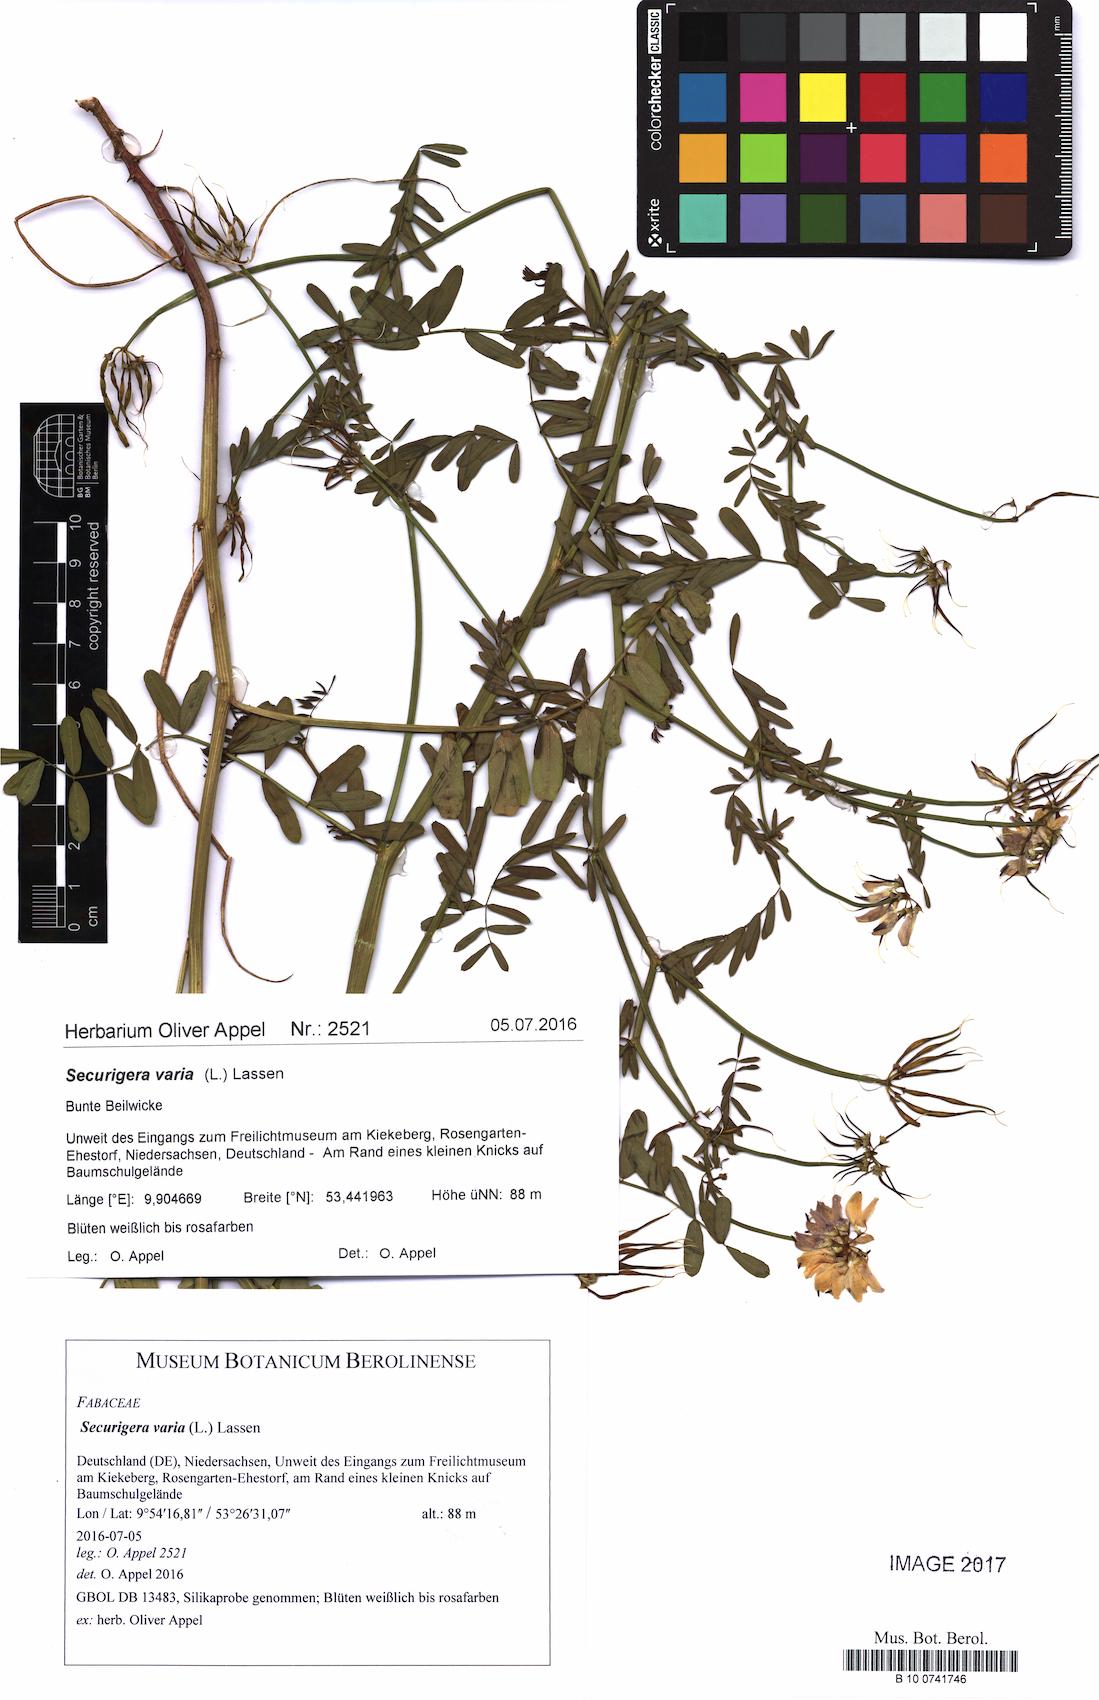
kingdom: Plantae
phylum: Tracheophyta
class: Magnoliopsida
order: Fabales
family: Fabaceae
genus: Coronilla
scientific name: Coronilla varia
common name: Crownvetch
